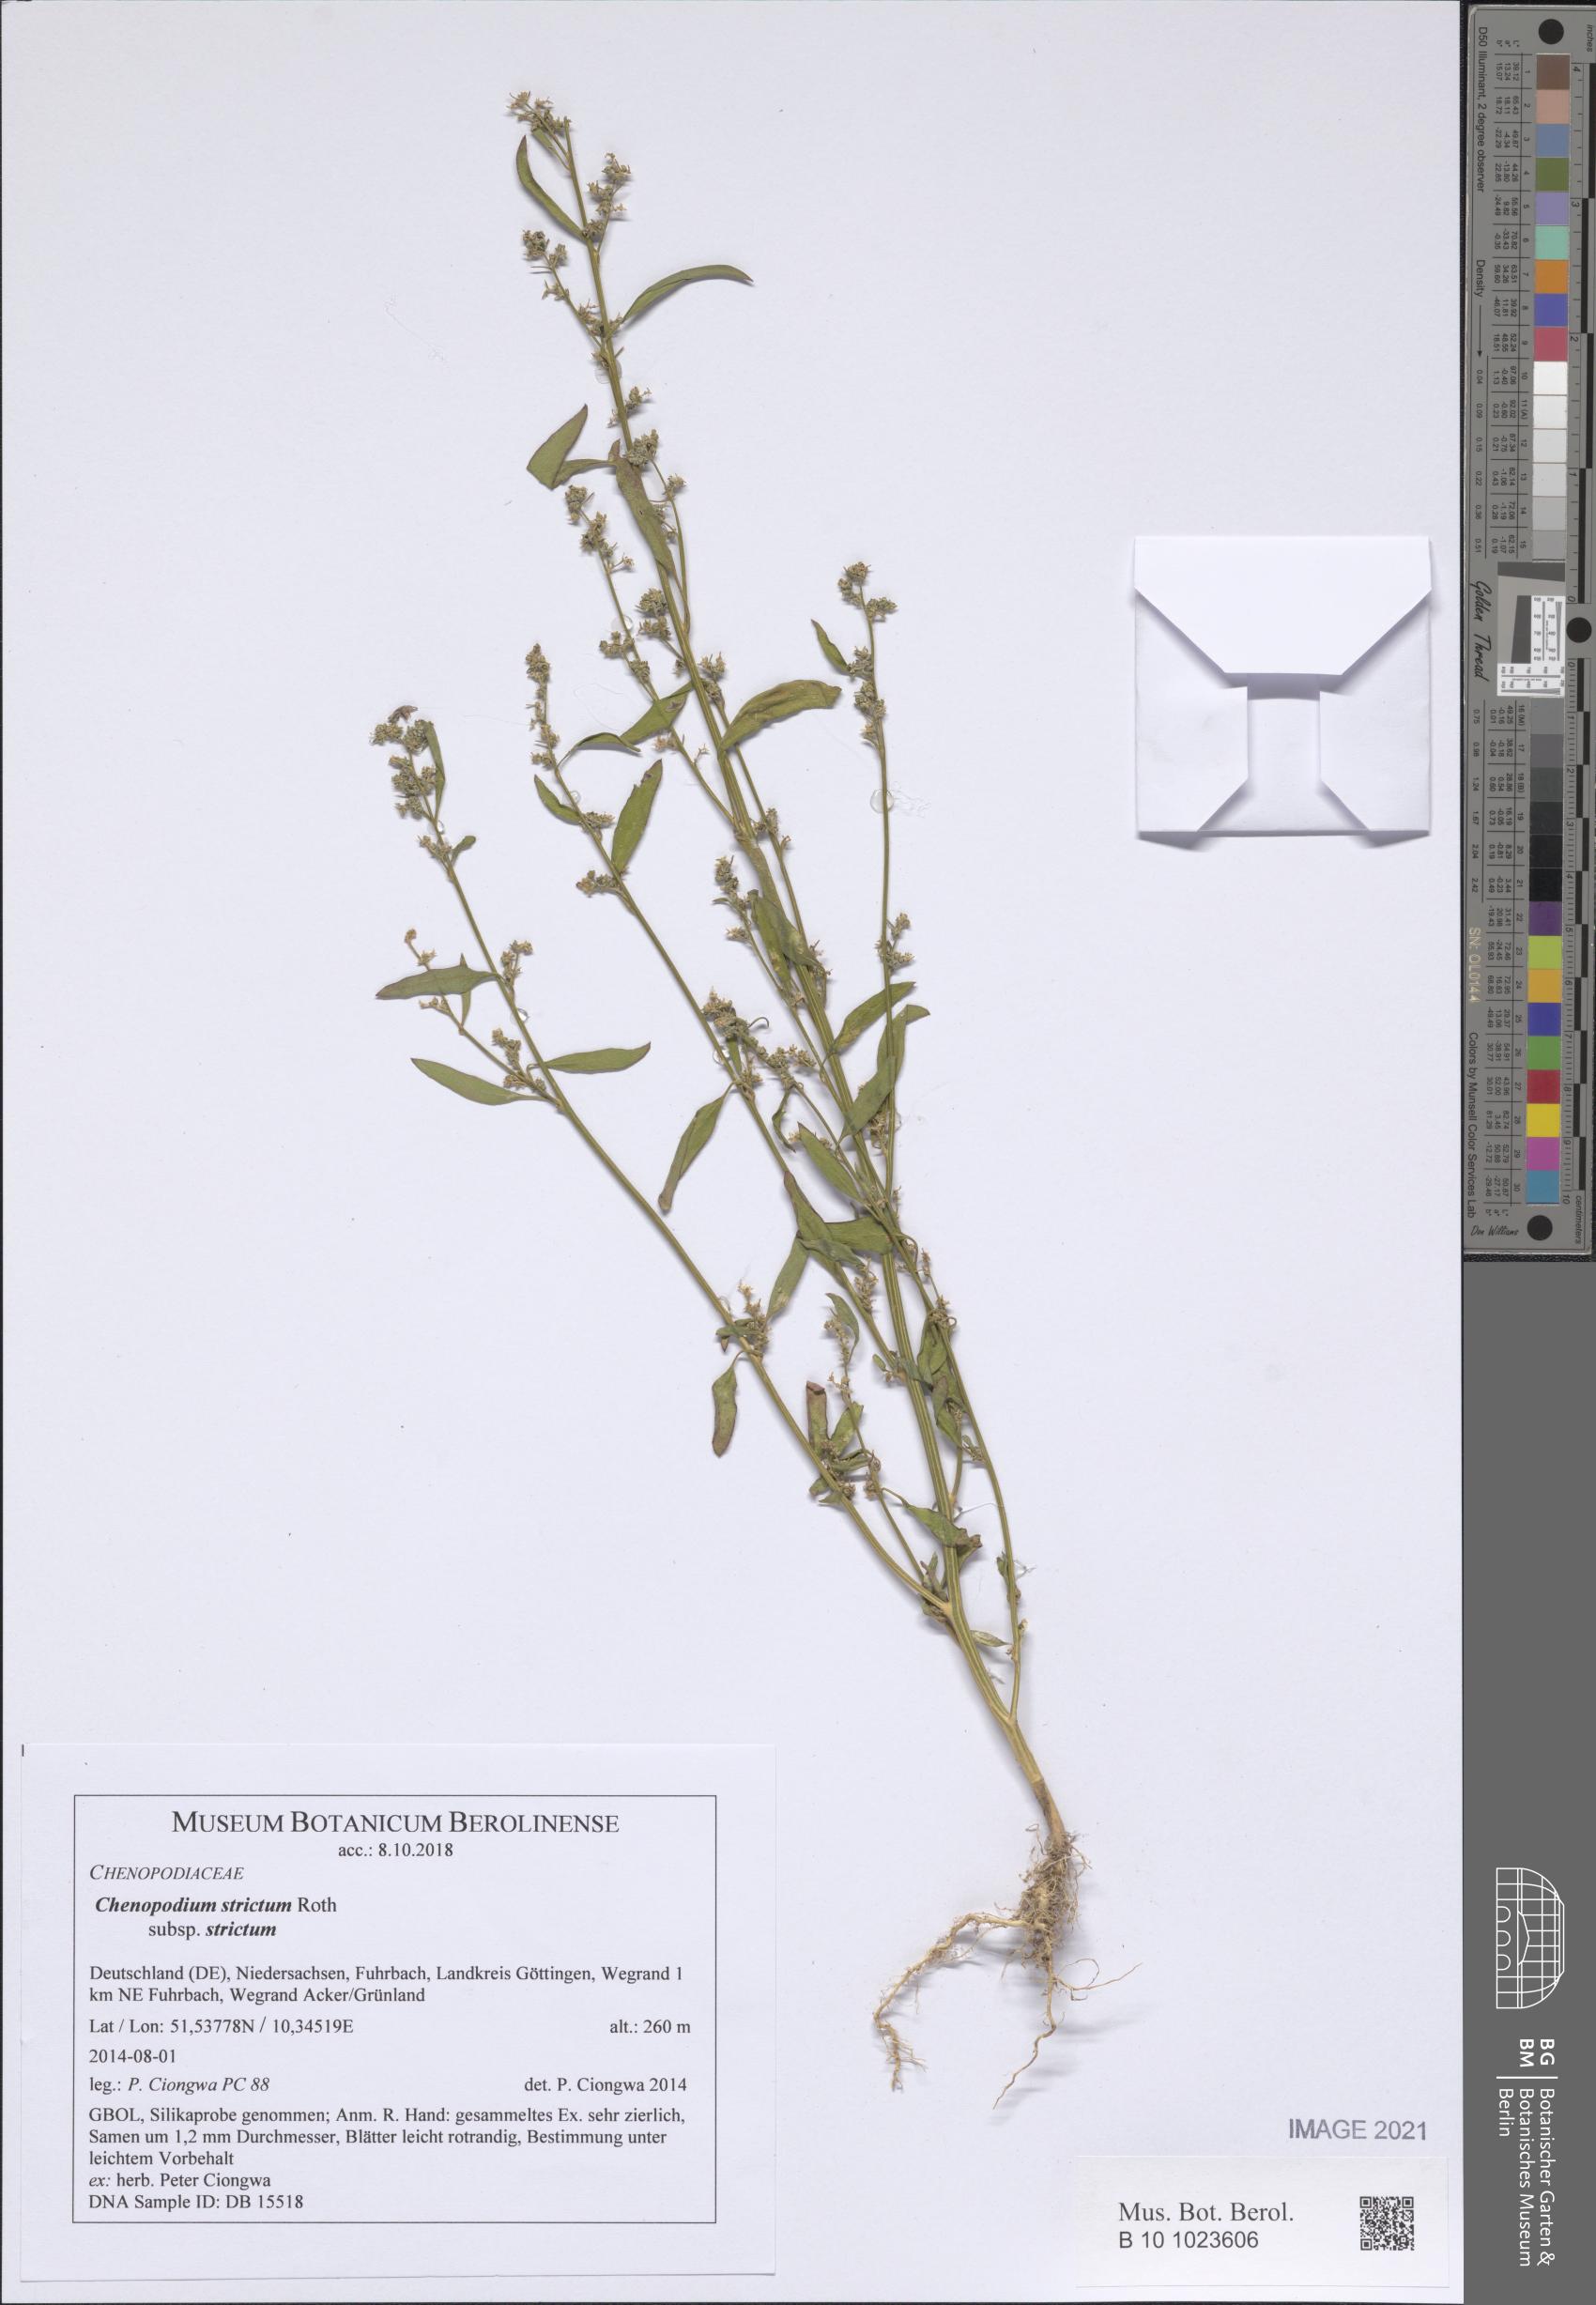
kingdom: Plantae
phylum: Tracheophyta
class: Magnoliopsida
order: Caryophyllales
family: Amaranthaceae
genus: Chenopodium
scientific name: Chenopodium album
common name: Fat-hen
